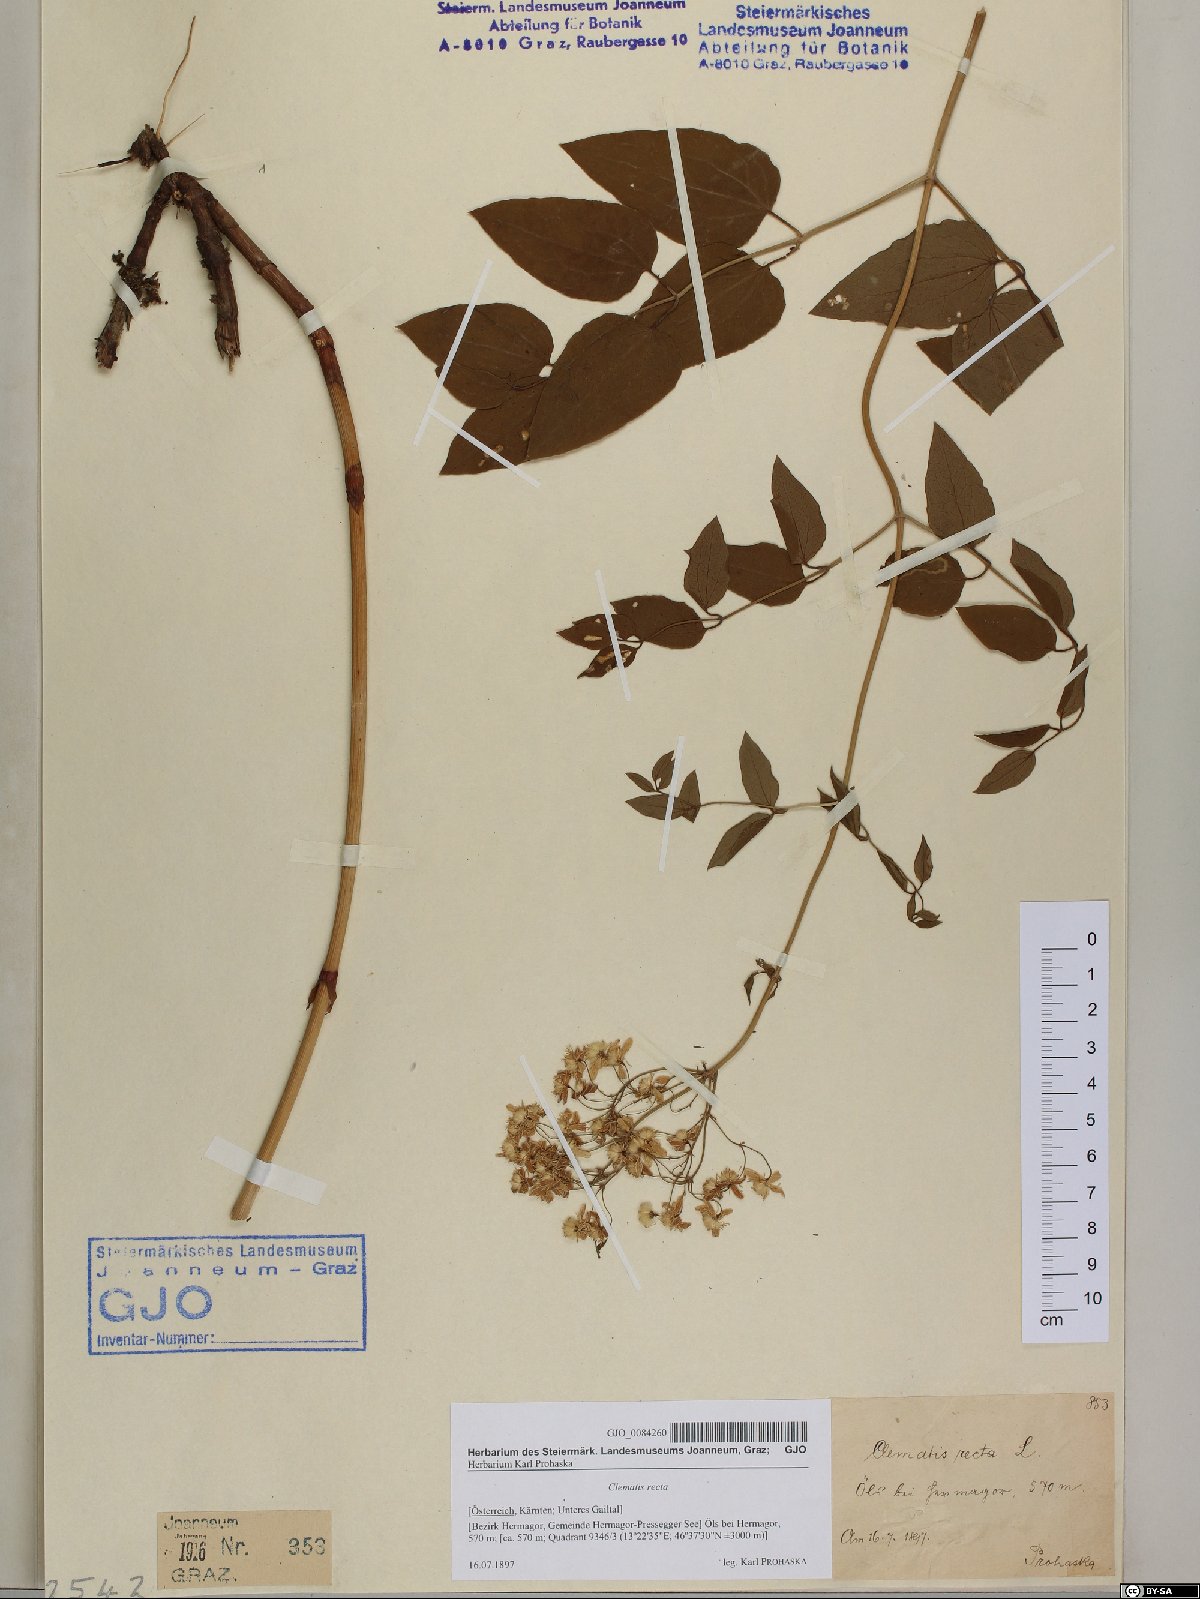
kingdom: Plantae
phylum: Tracheophyta
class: Magnoliopsida
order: Ranunculales
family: Ranunculaceae
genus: Clematis
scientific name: Clematis recta
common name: Ground clematis
